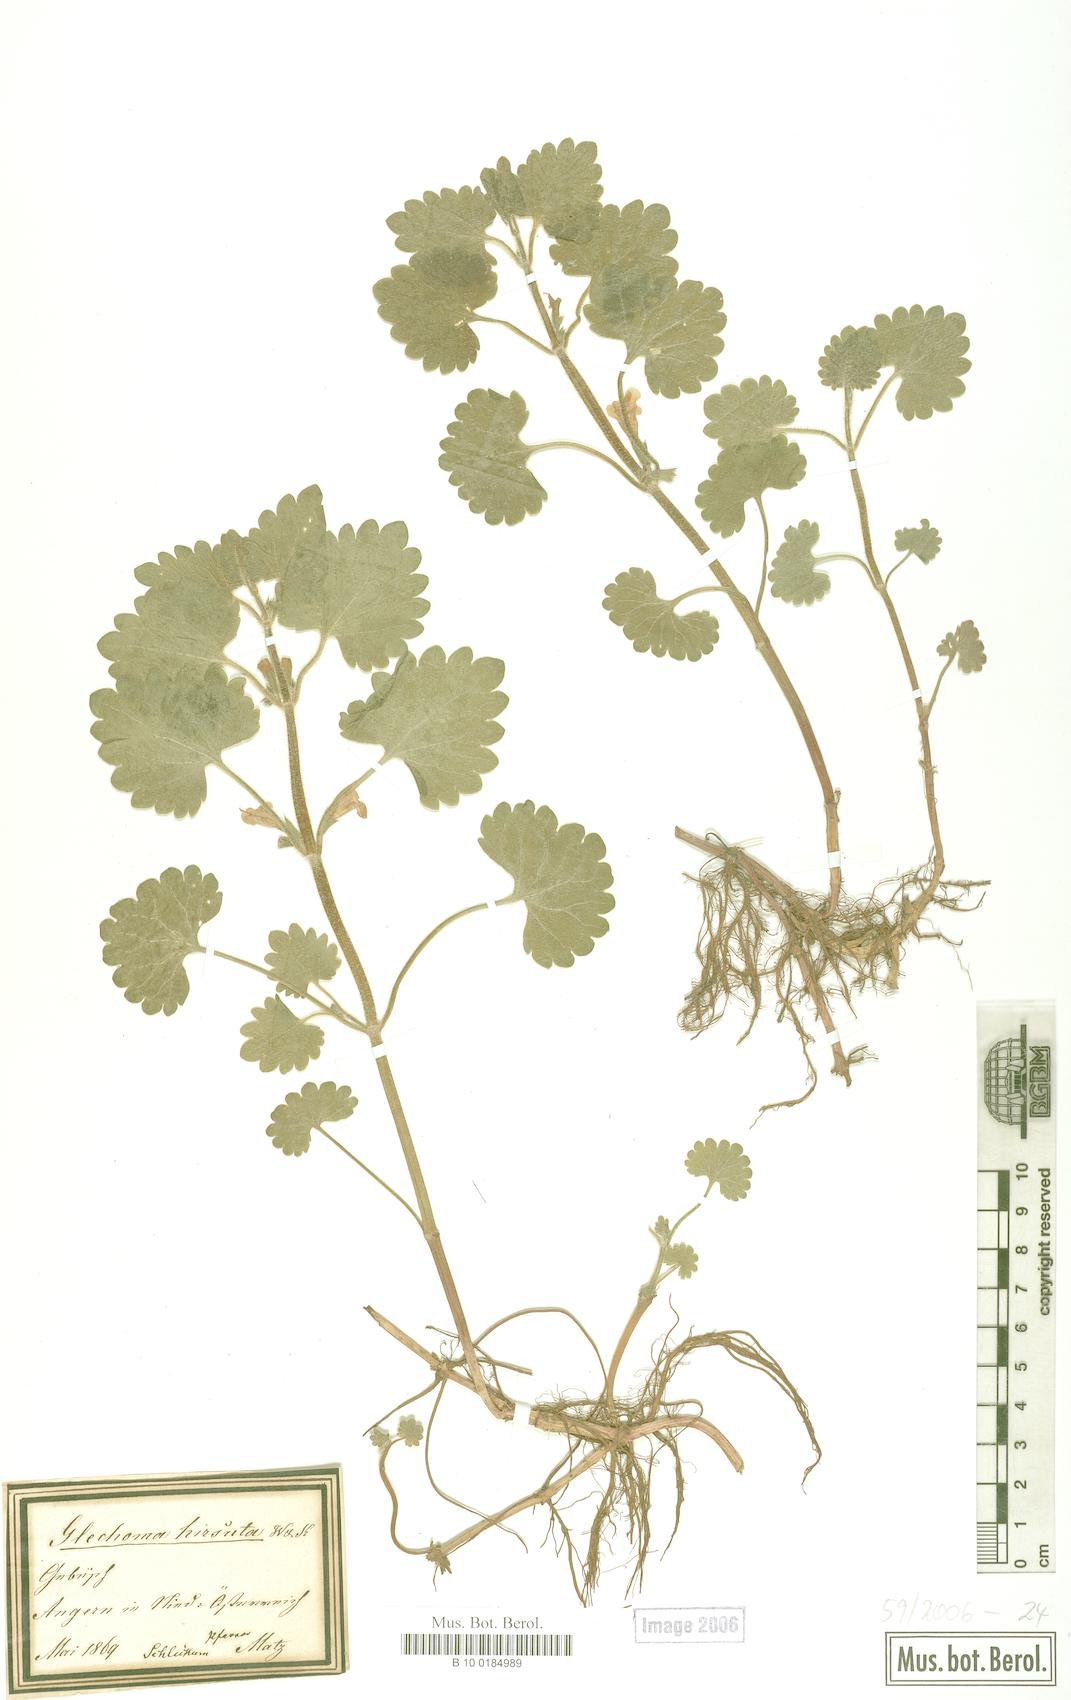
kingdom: Plantae
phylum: Tracheophyta
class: Magnoliopsida
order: Lamiales
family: Lamiaceae
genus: Glechoma
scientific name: Glechoma hirsuta
